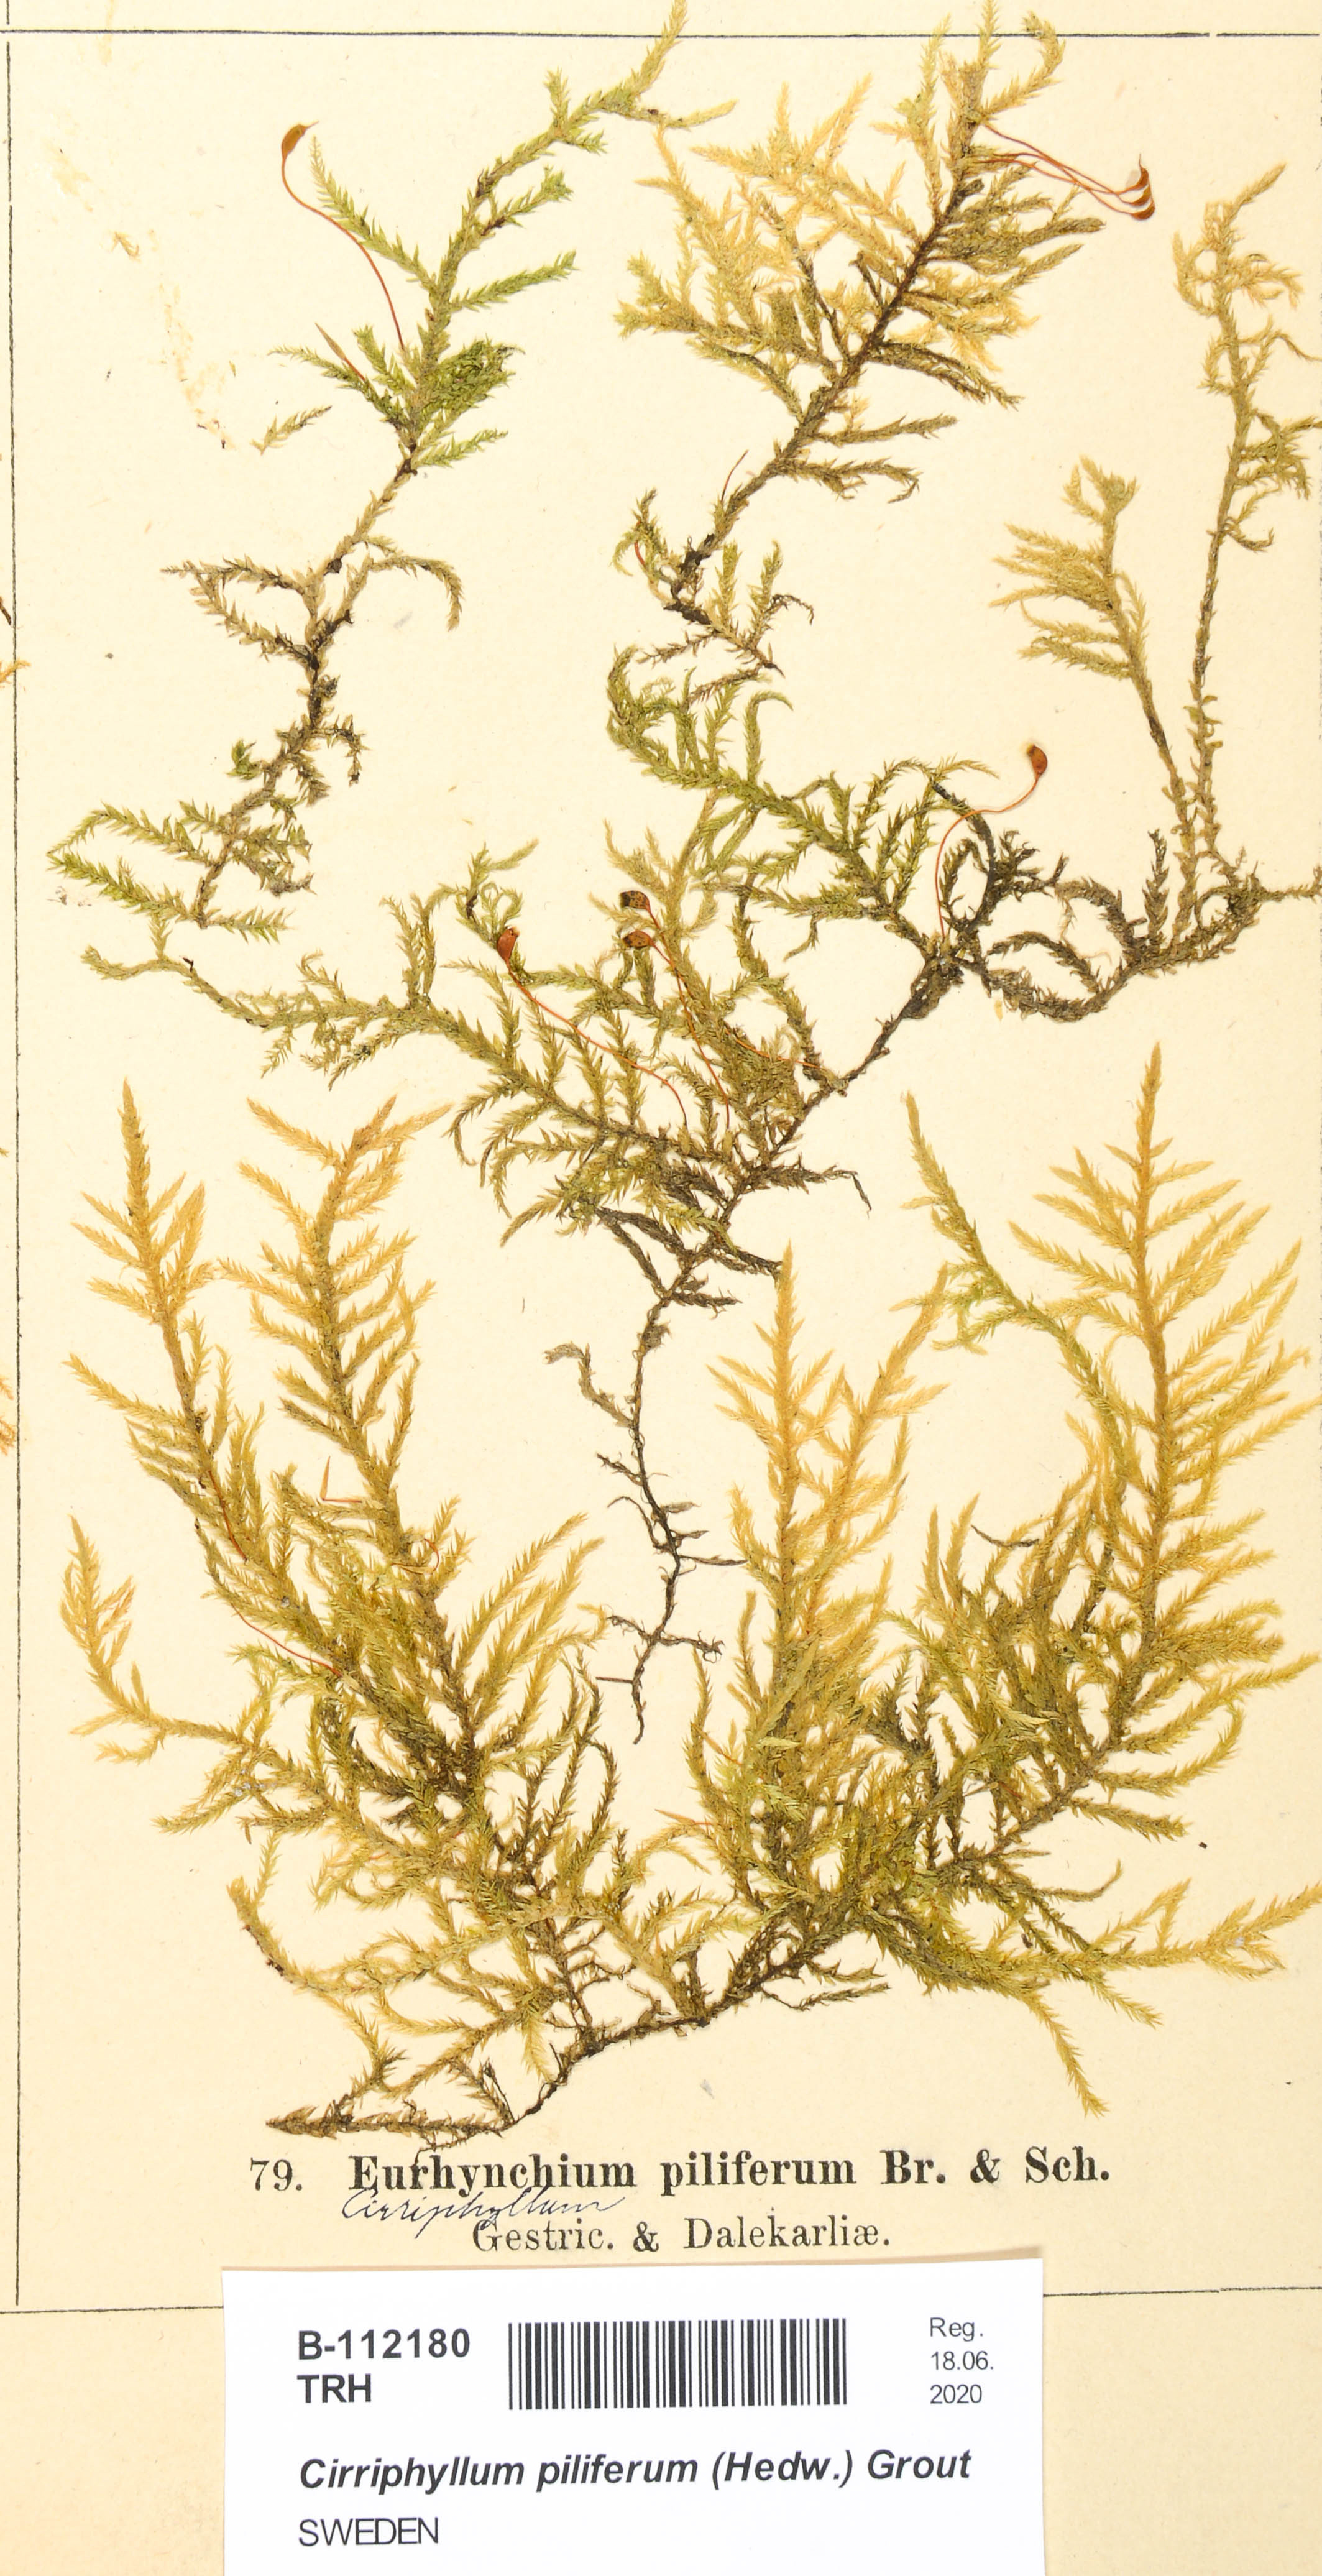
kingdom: Plantae
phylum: Bryophyta
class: Bryopsida
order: Hypnales
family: Brachytheciaceae
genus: Cirriphyllum
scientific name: Cirriphyllum piliferum
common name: Hair-pointed moss
